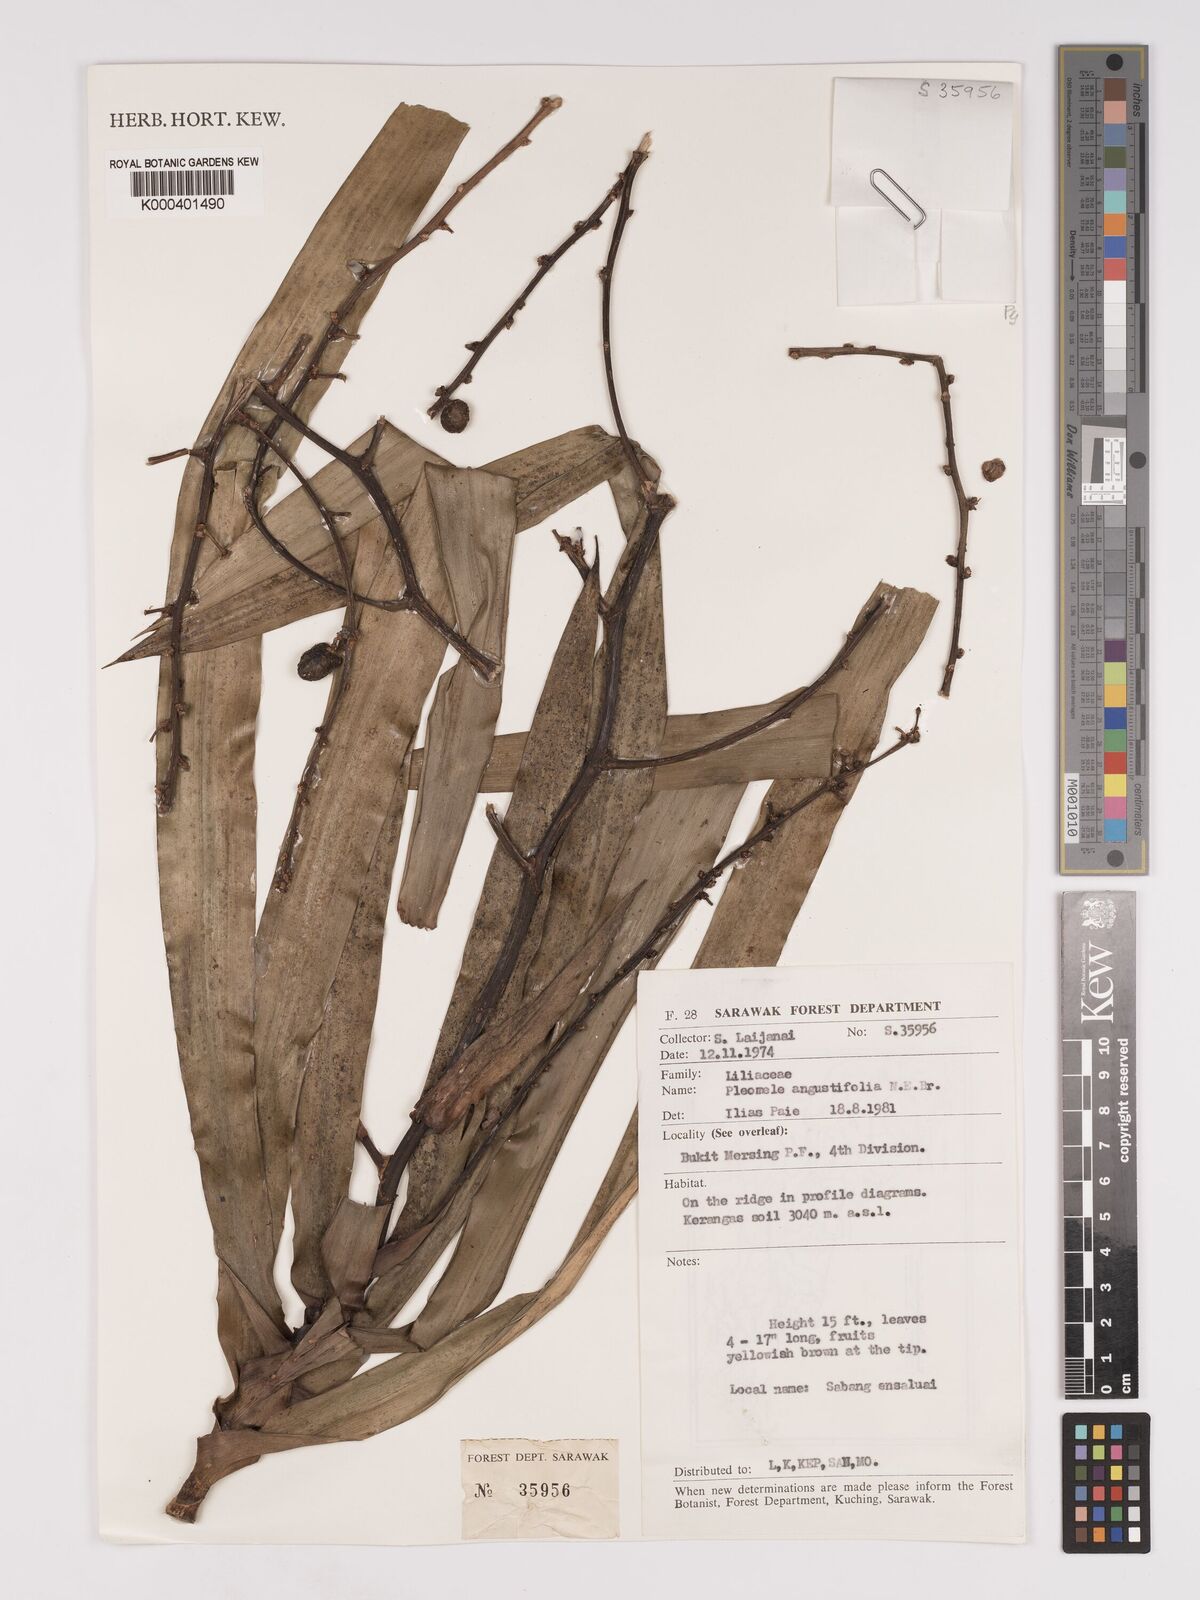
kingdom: Plantae
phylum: Tracheophyta
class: Liliopsida
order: Asparagales
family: Asparagaceae
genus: Dracaena
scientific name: Dracaena angustifolia
